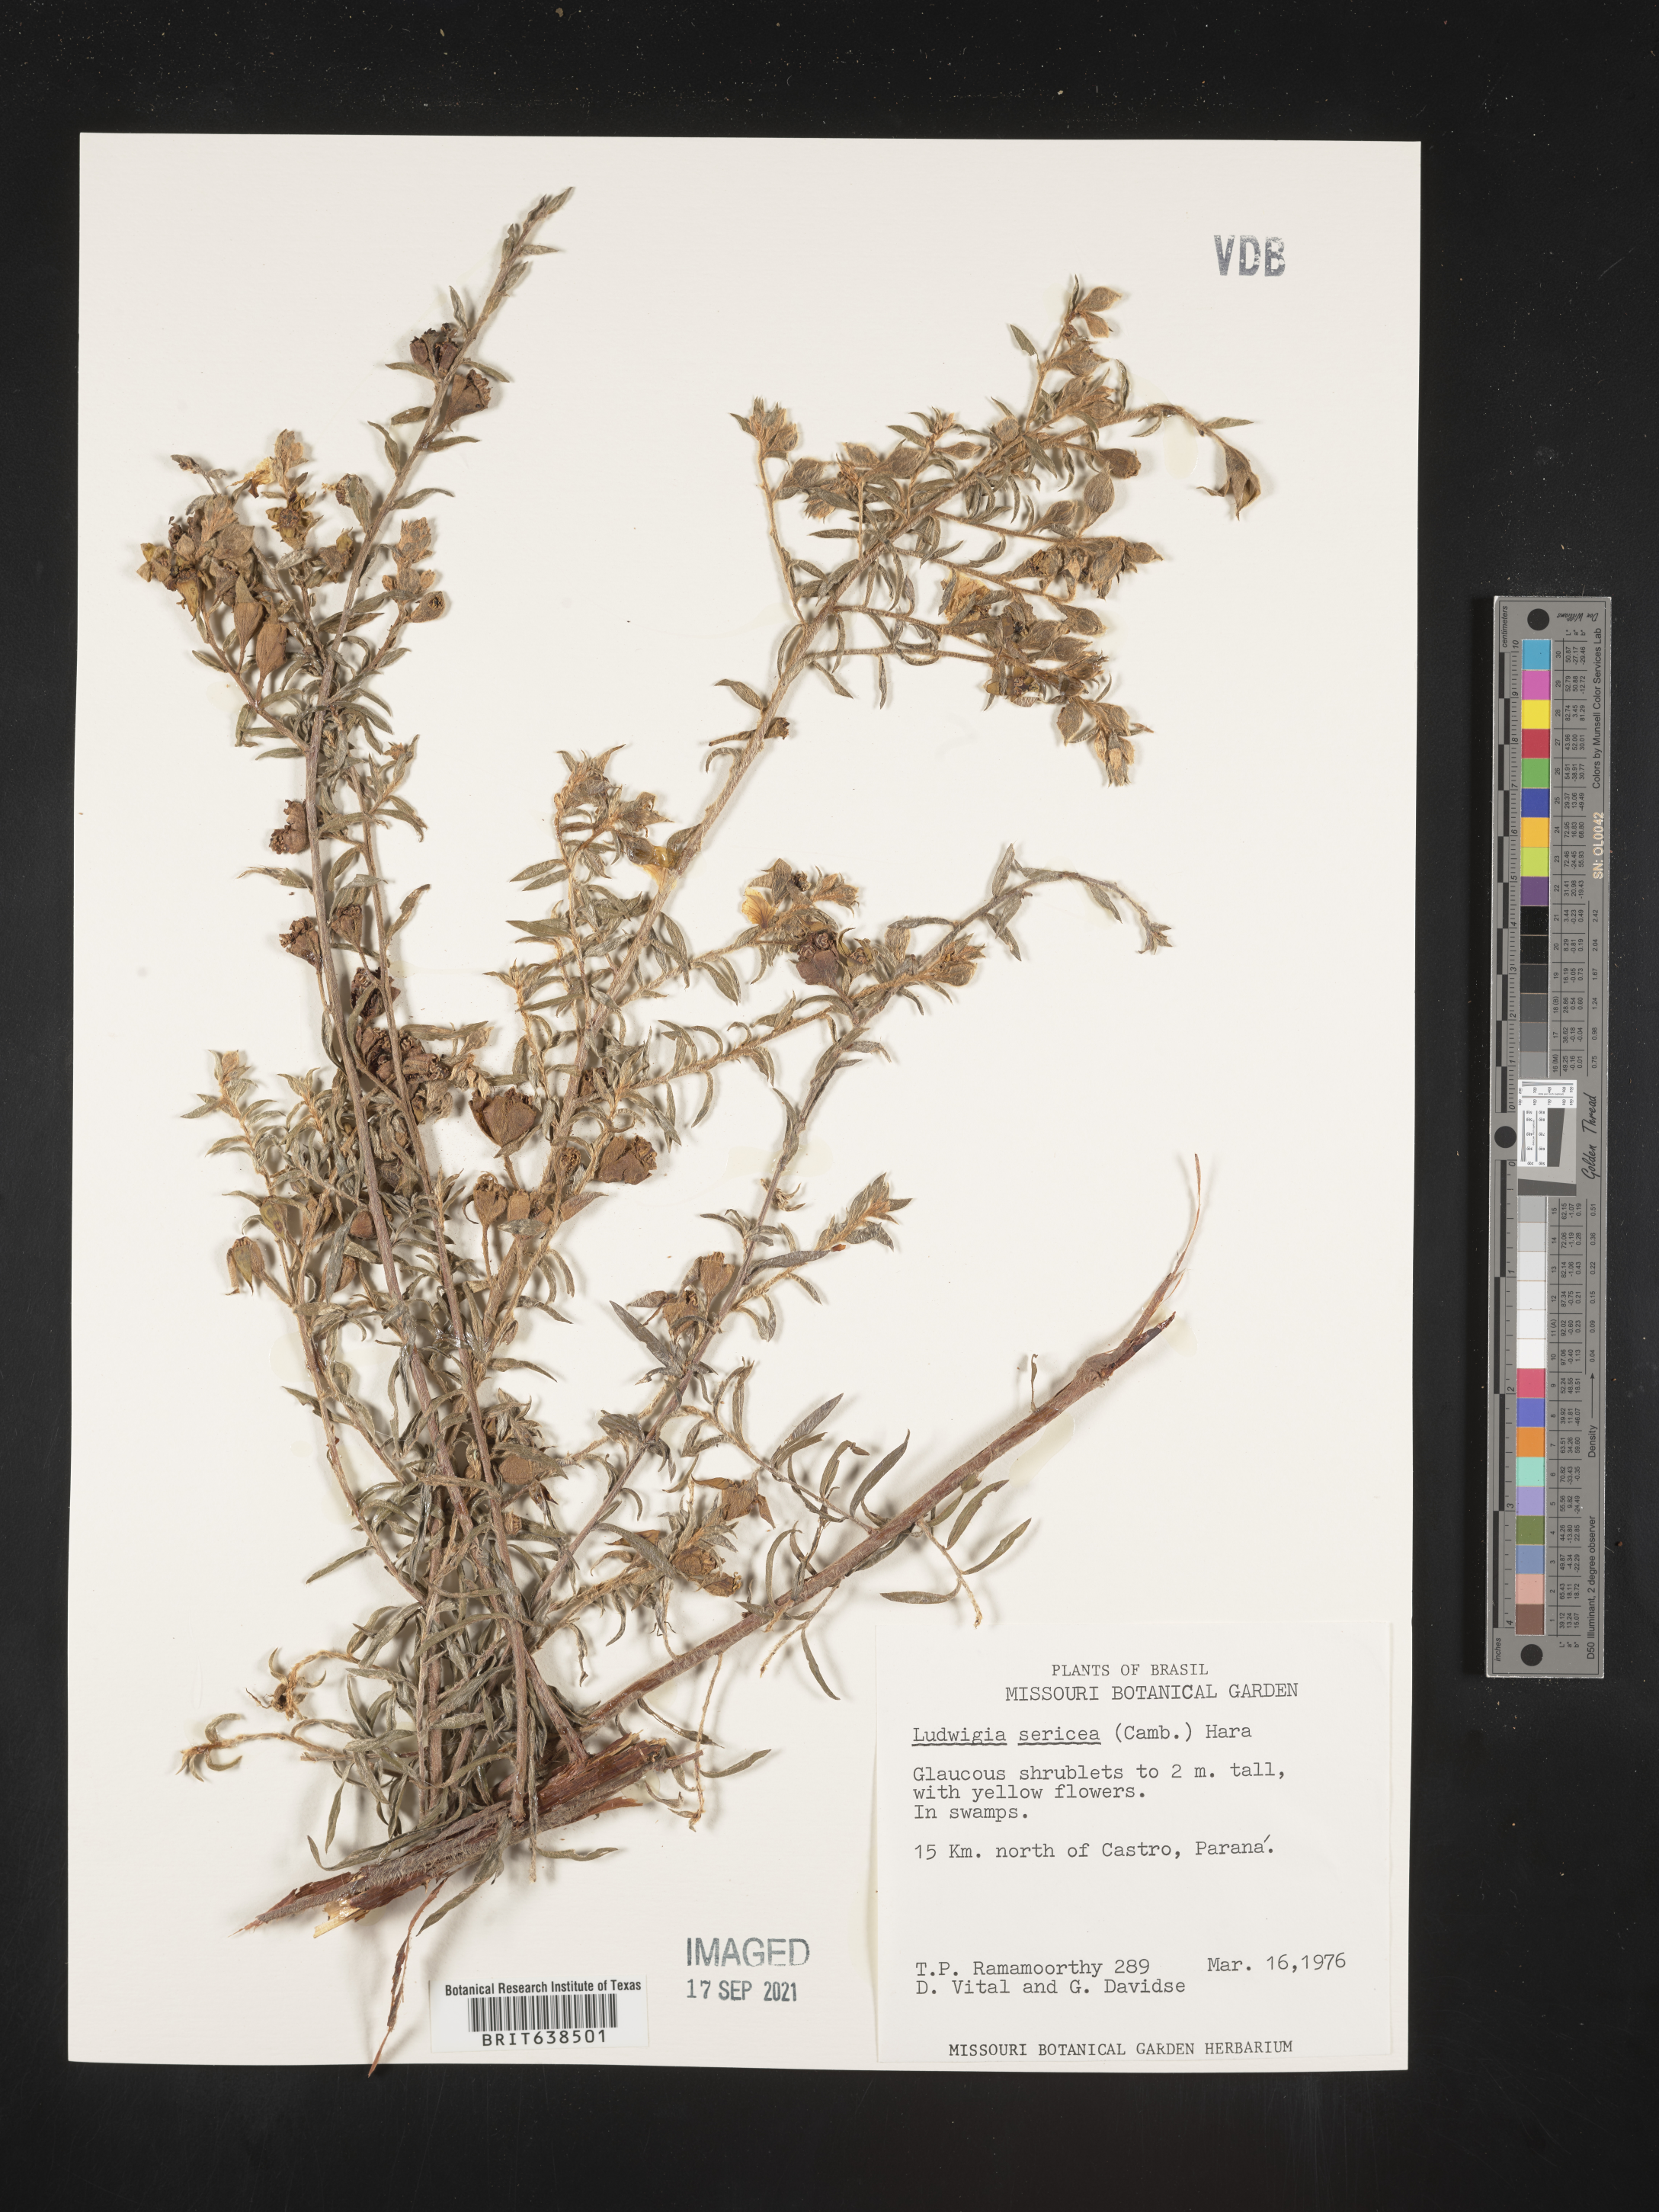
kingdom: Plantae
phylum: Tracheophyta
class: Magnoliopsida
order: Myrtales
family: Onagraceae
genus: Ludwigia
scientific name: Ludwigia
